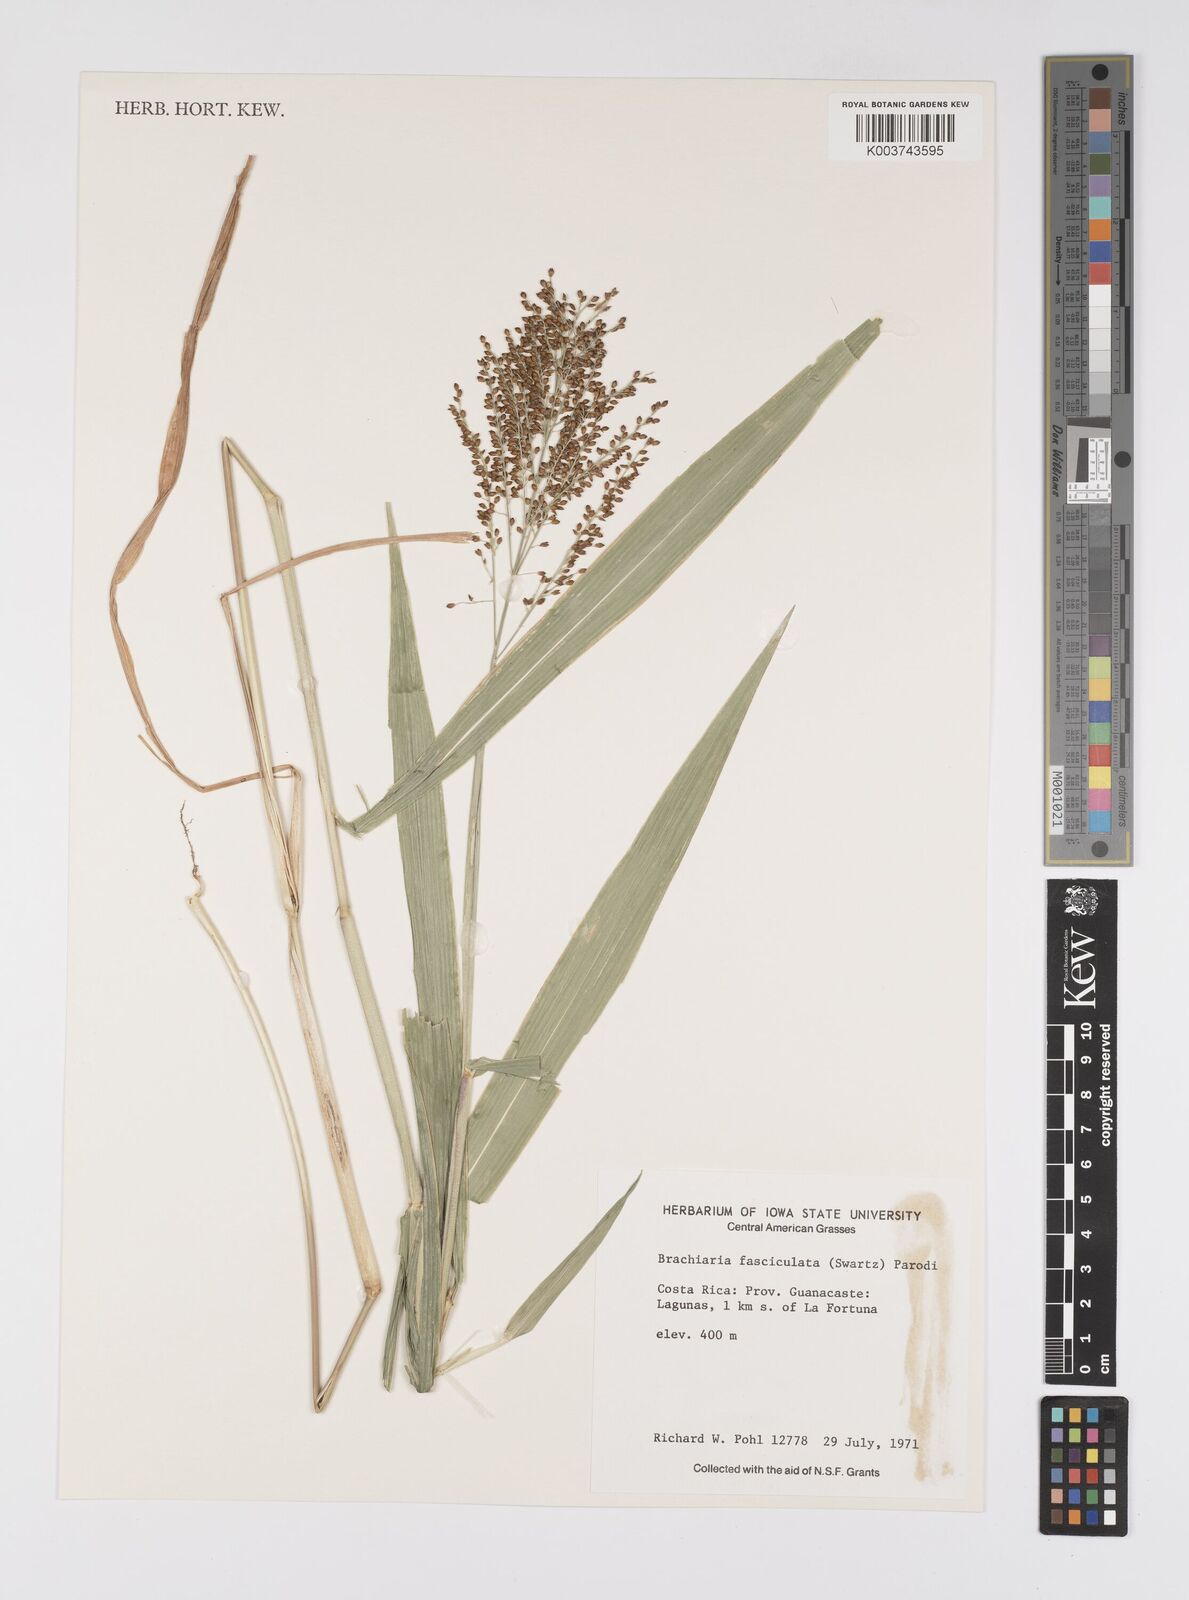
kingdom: Plantae
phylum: Tracheophyta
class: Liliopsida
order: Poales
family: Poaceae
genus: Urochloa
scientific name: Urochloa fusca
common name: Browntop signal grass
